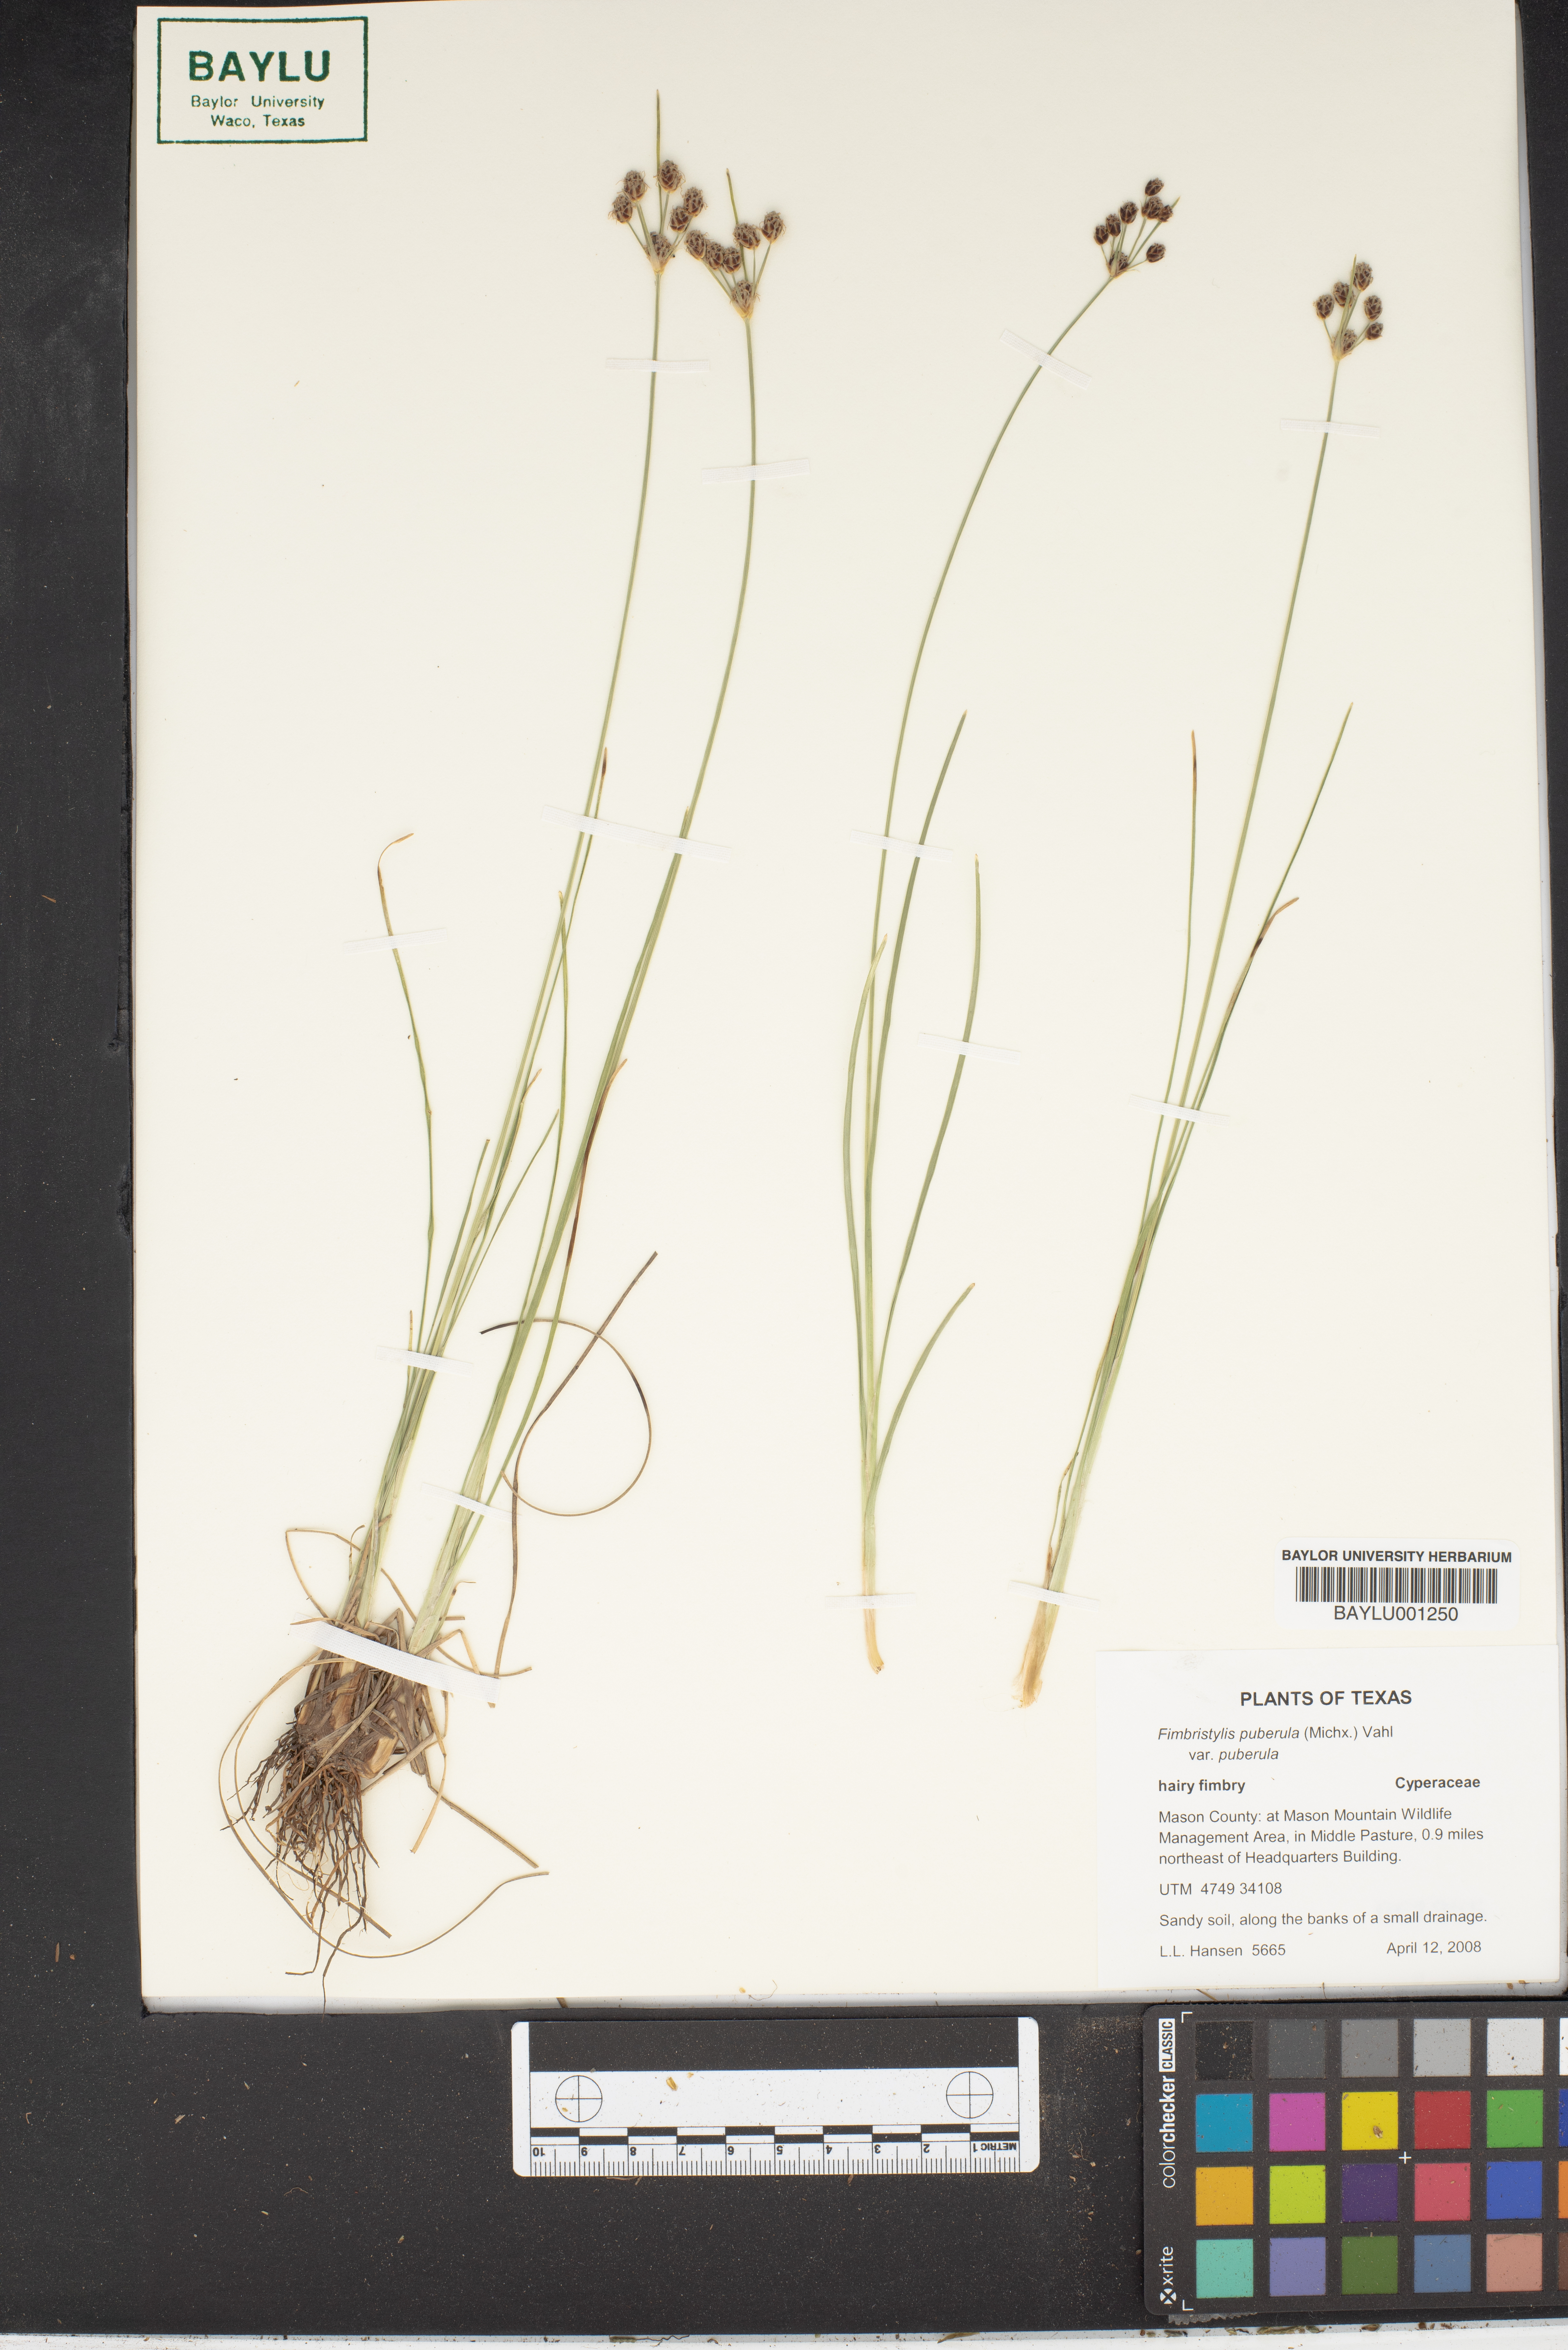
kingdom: Plantae
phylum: Tracheophyta
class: Liliopsida
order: Poales
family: Cyperaceae
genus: Fimbristylis
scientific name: Fimbristylis puberula
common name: Hairy fimbristylis
